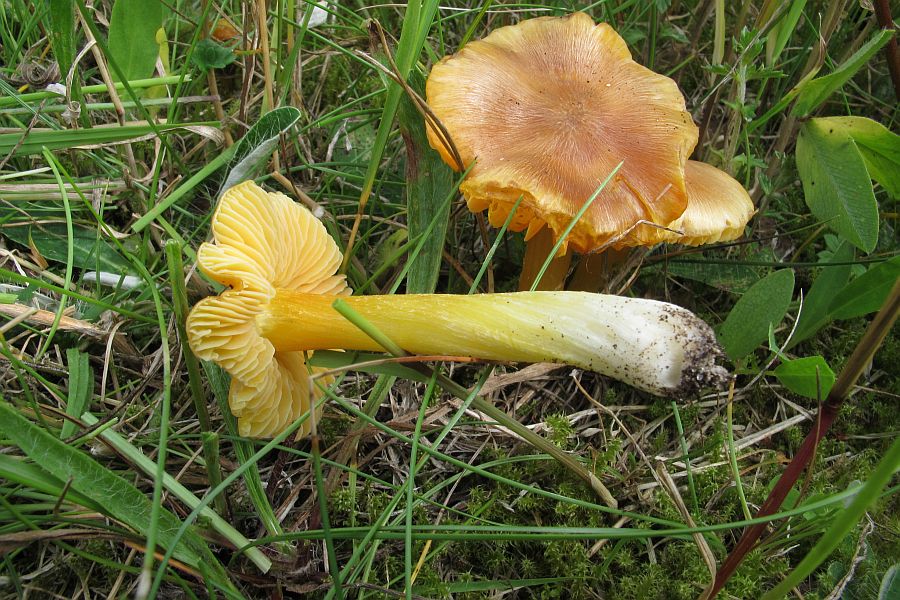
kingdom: Fungi
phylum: Basidiomycota
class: Agaricomycetes
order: Agaricales
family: Hygrophoraceae
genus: Hygrocybe
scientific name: Hygrocybe acutoconica
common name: Konrads vokshat
